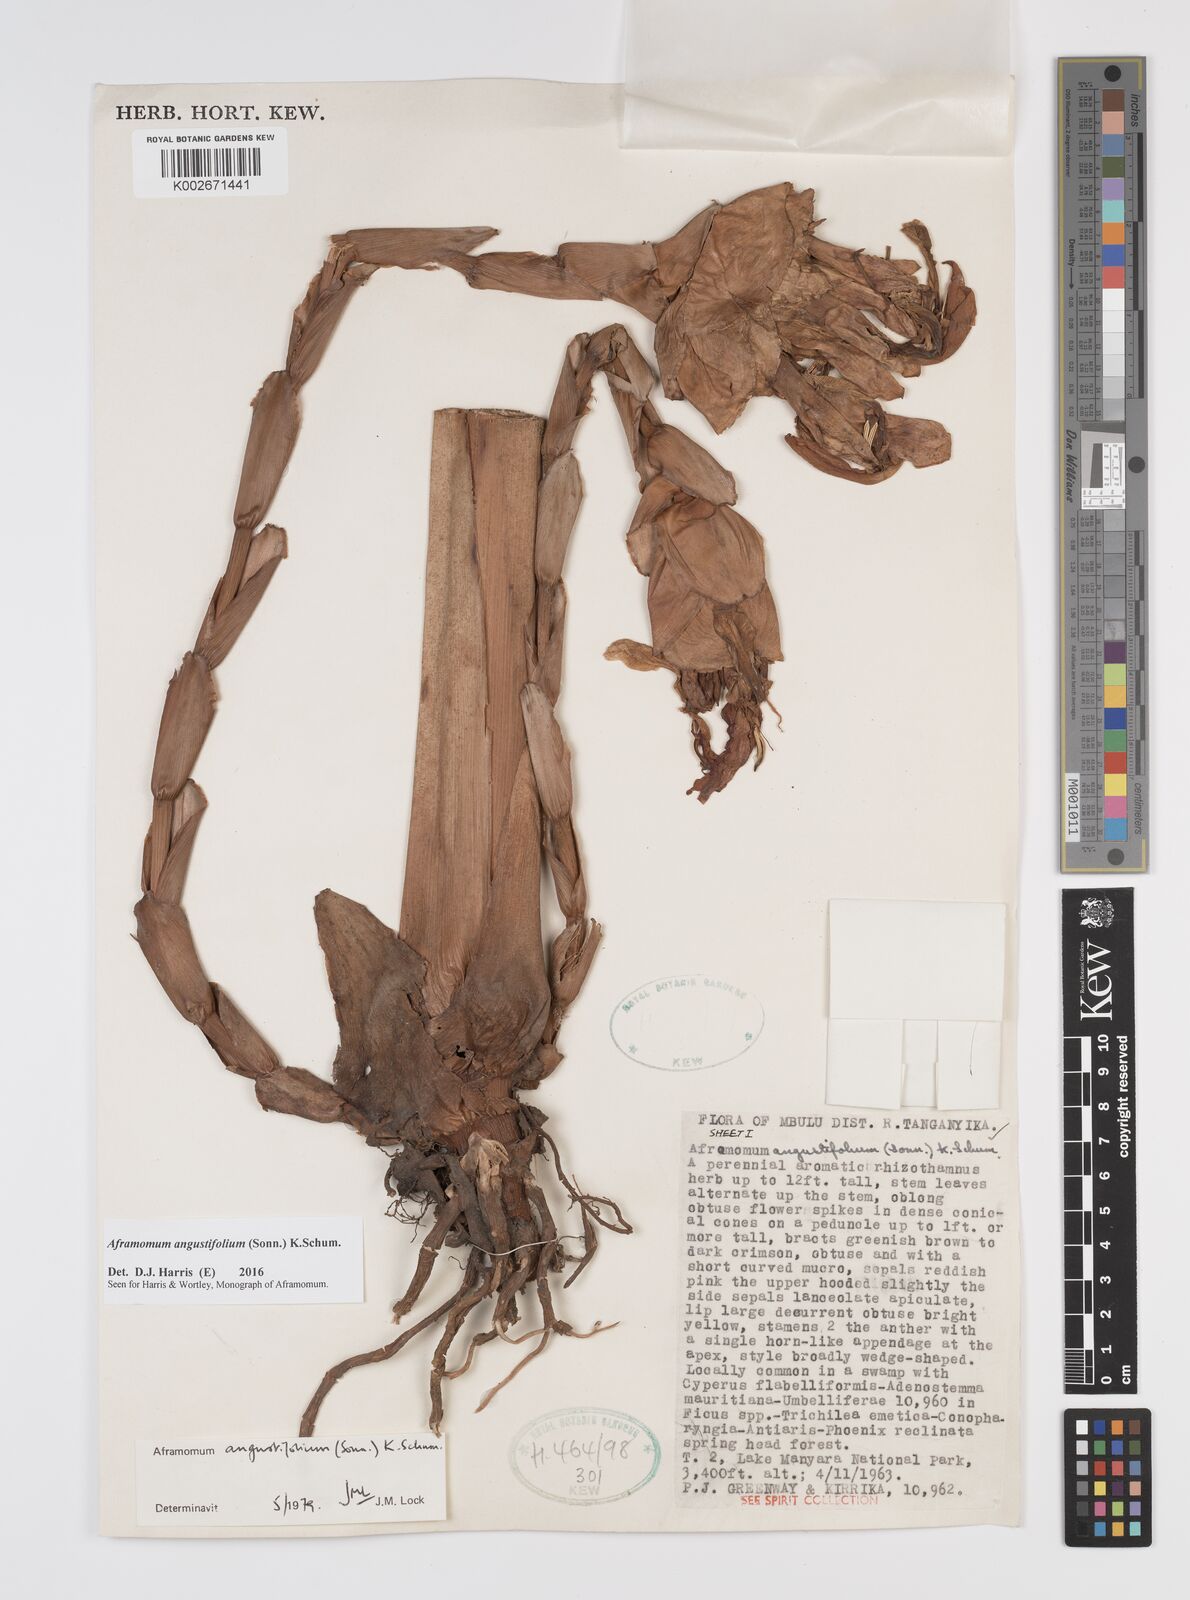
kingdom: Plantae
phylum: Tracheophyta
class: Liliopsida
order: Zingiberales
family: Zingiberaceae
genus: Aframomum
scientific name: Aframomum angustifolium
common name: Guinea grains
